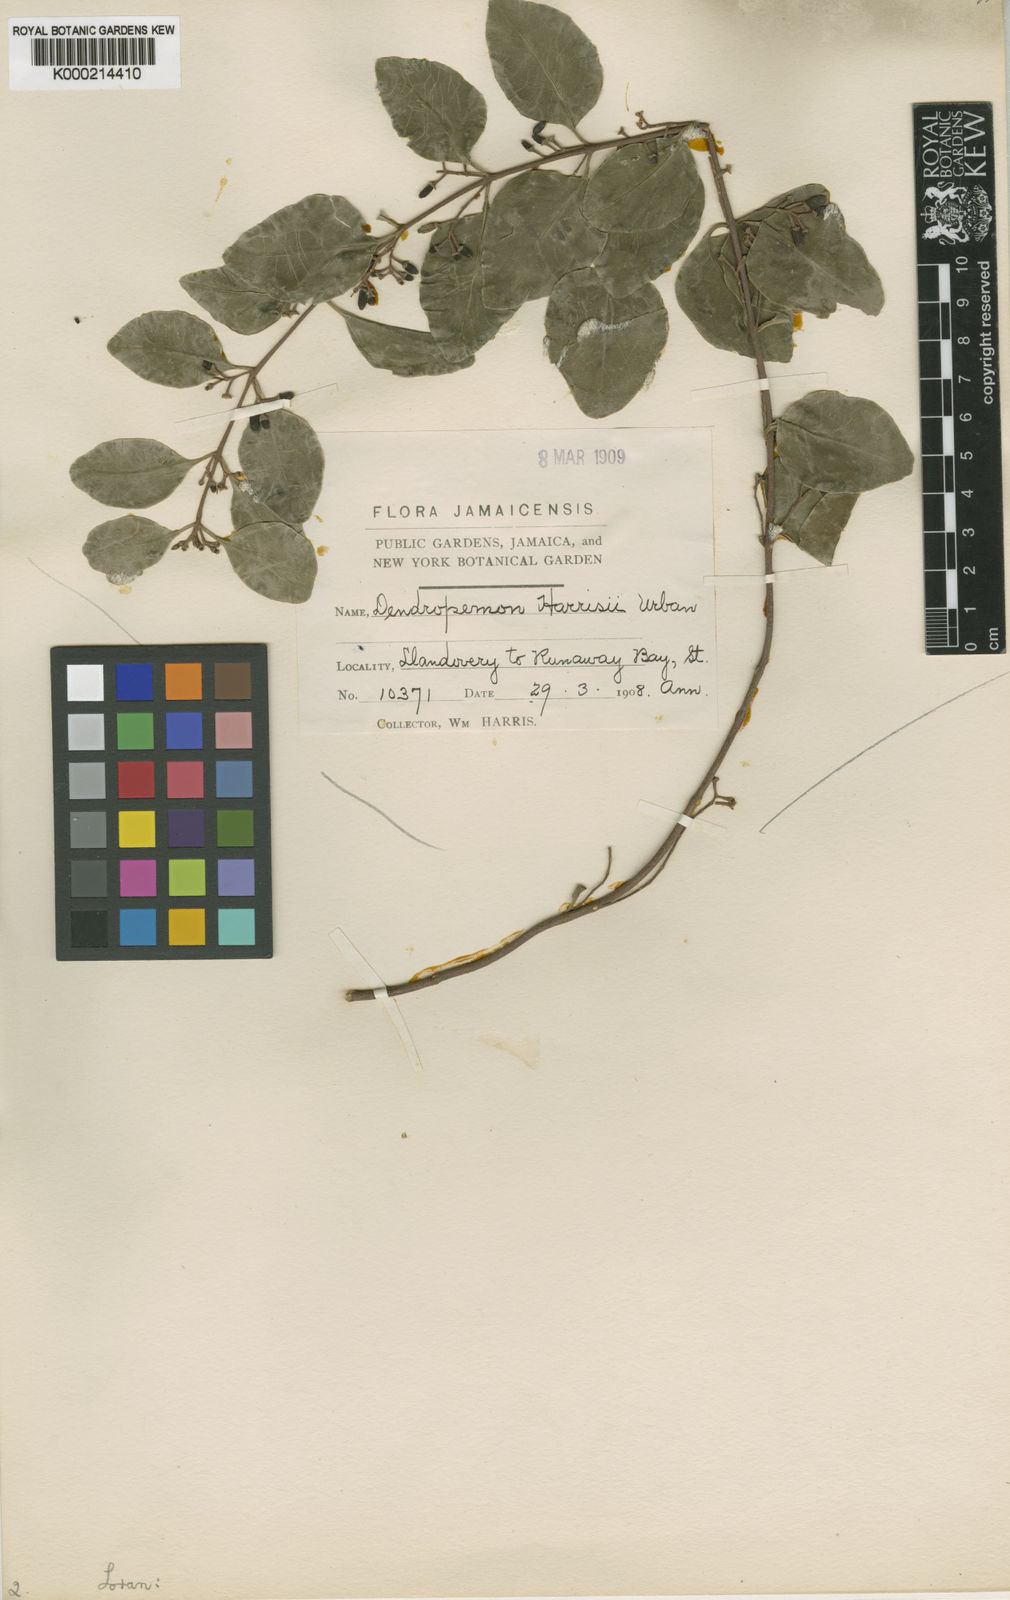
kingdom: Plantae
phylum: Tracheophyta
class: Magnoliopsida
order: Santalales
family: Loranthaceae
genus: Dendropemon
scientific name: Dendropemon pauciflorus
